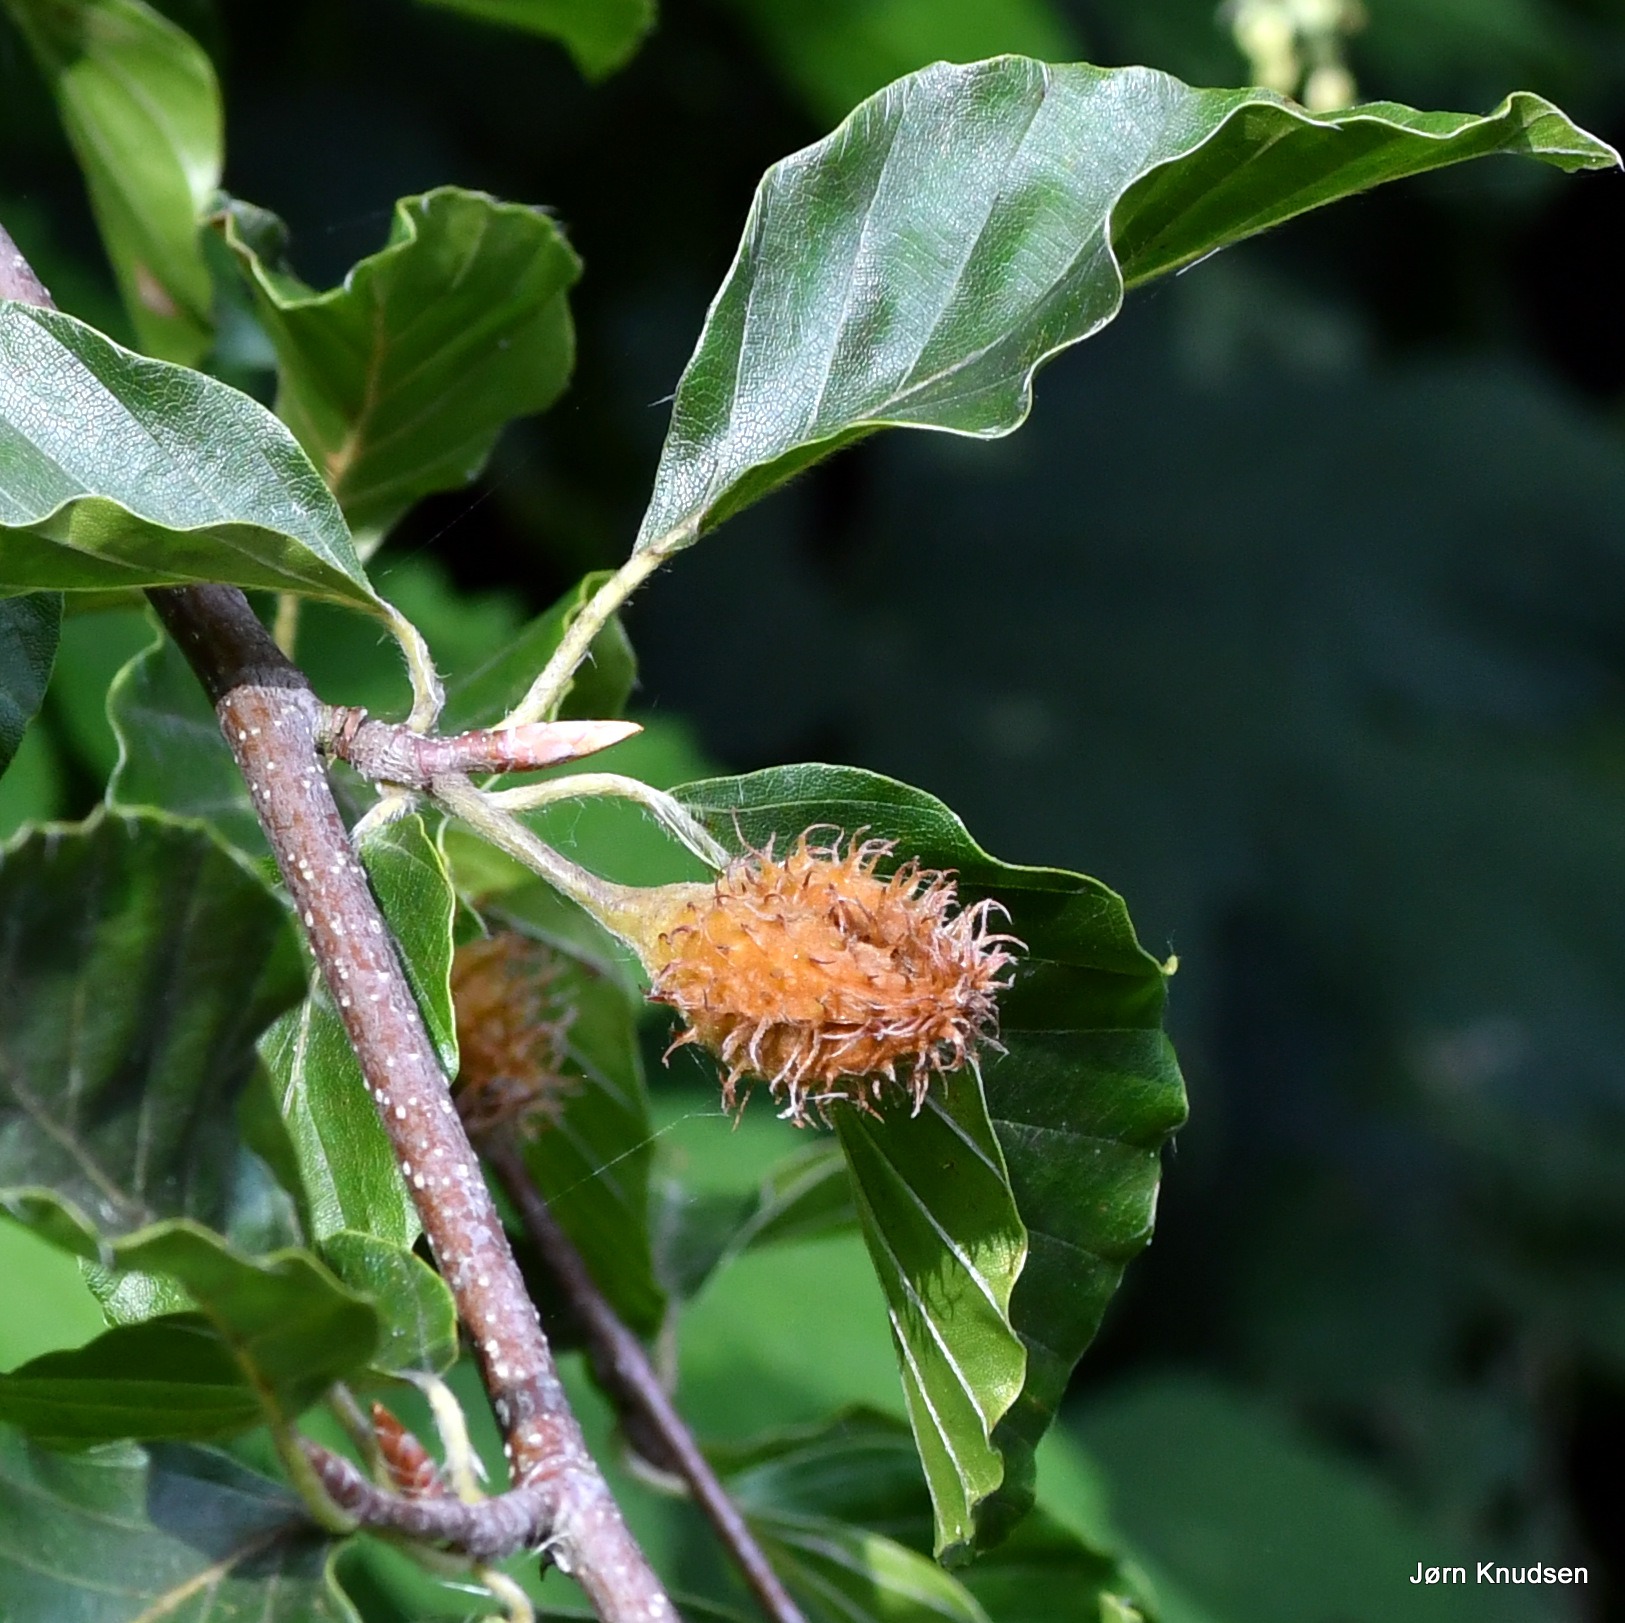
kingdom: Plantae
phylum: Tracheophyta
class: Magnoliopsida
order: Fagales
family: Fagaceae
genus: Fagus
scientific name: Fagus sylvatica
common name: Bøg
